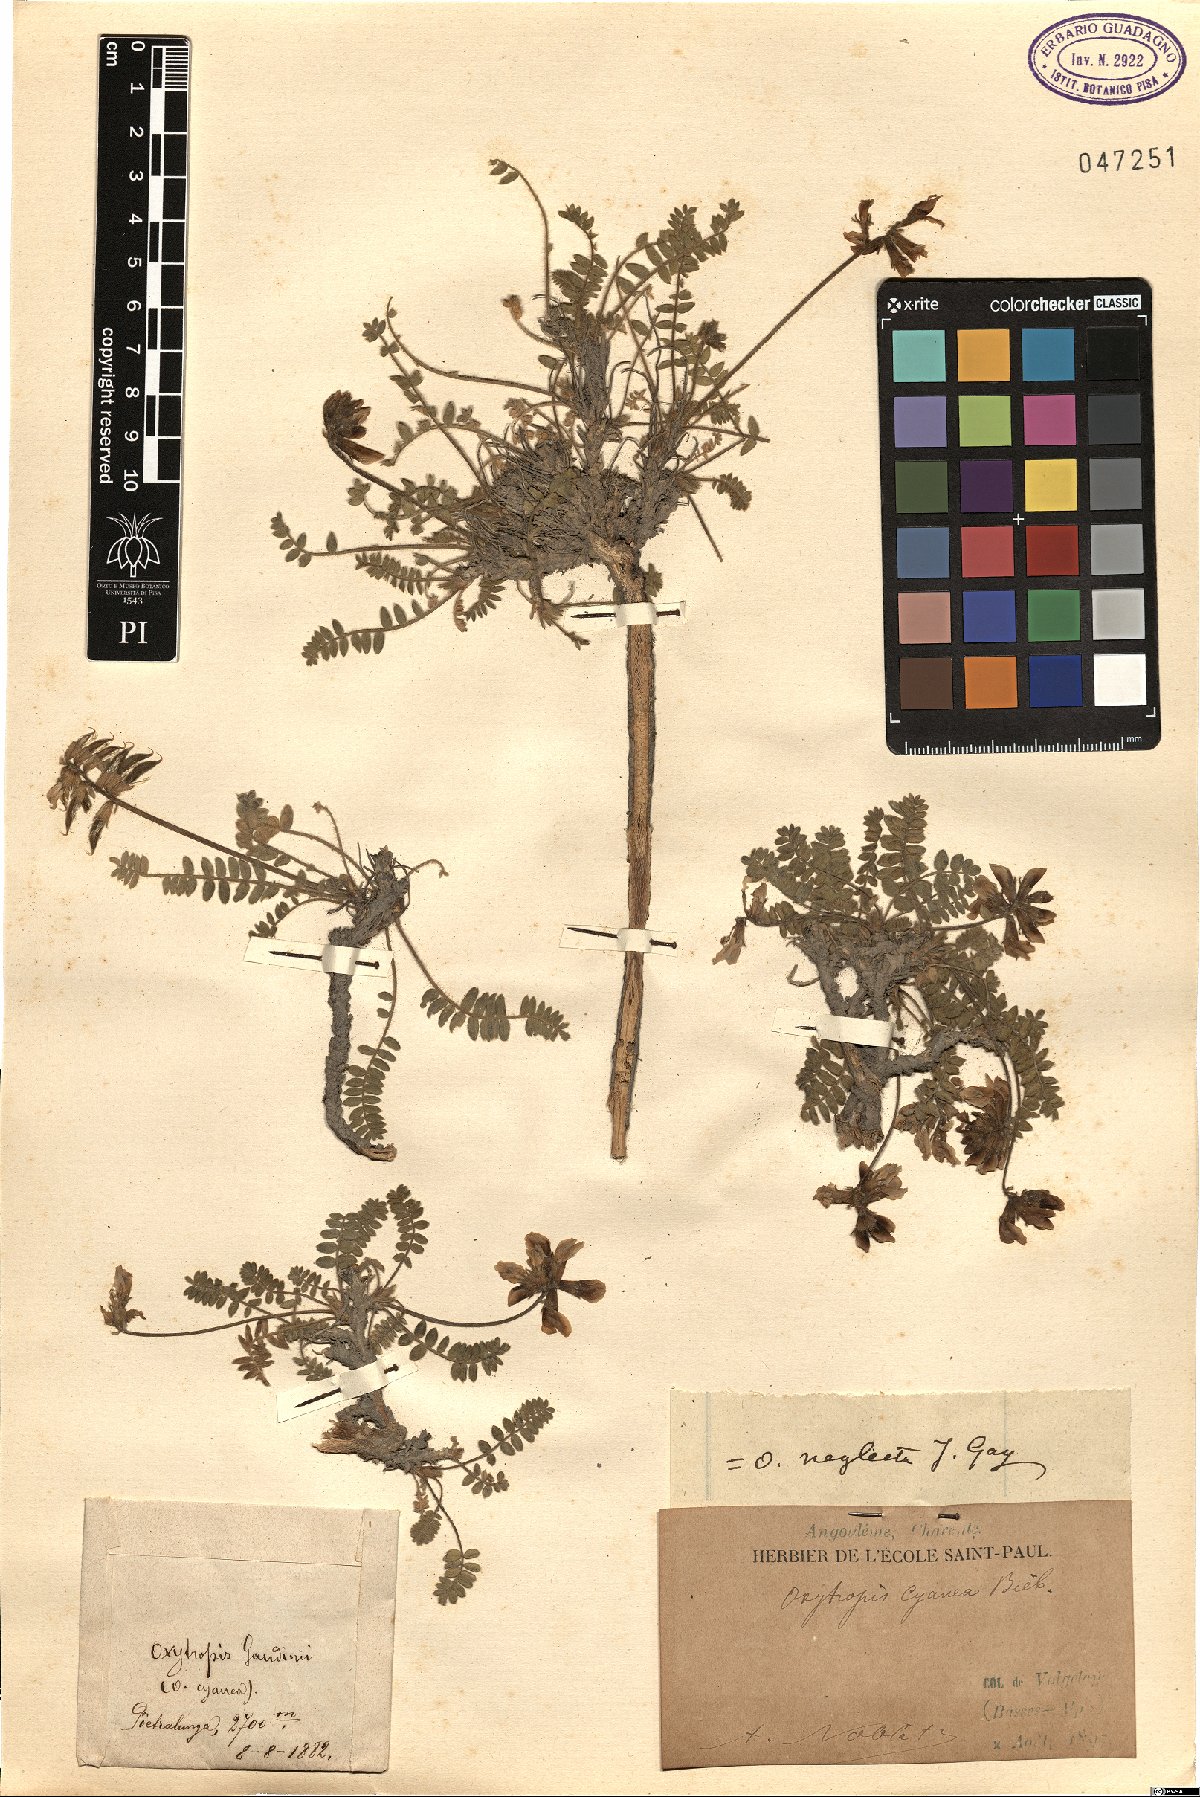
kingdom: Plantae
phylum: Tracheophyta
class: Magnoliopsida
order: Fabales
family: Fabaceae
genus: Oxytropis
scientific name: Oxytropis albana
